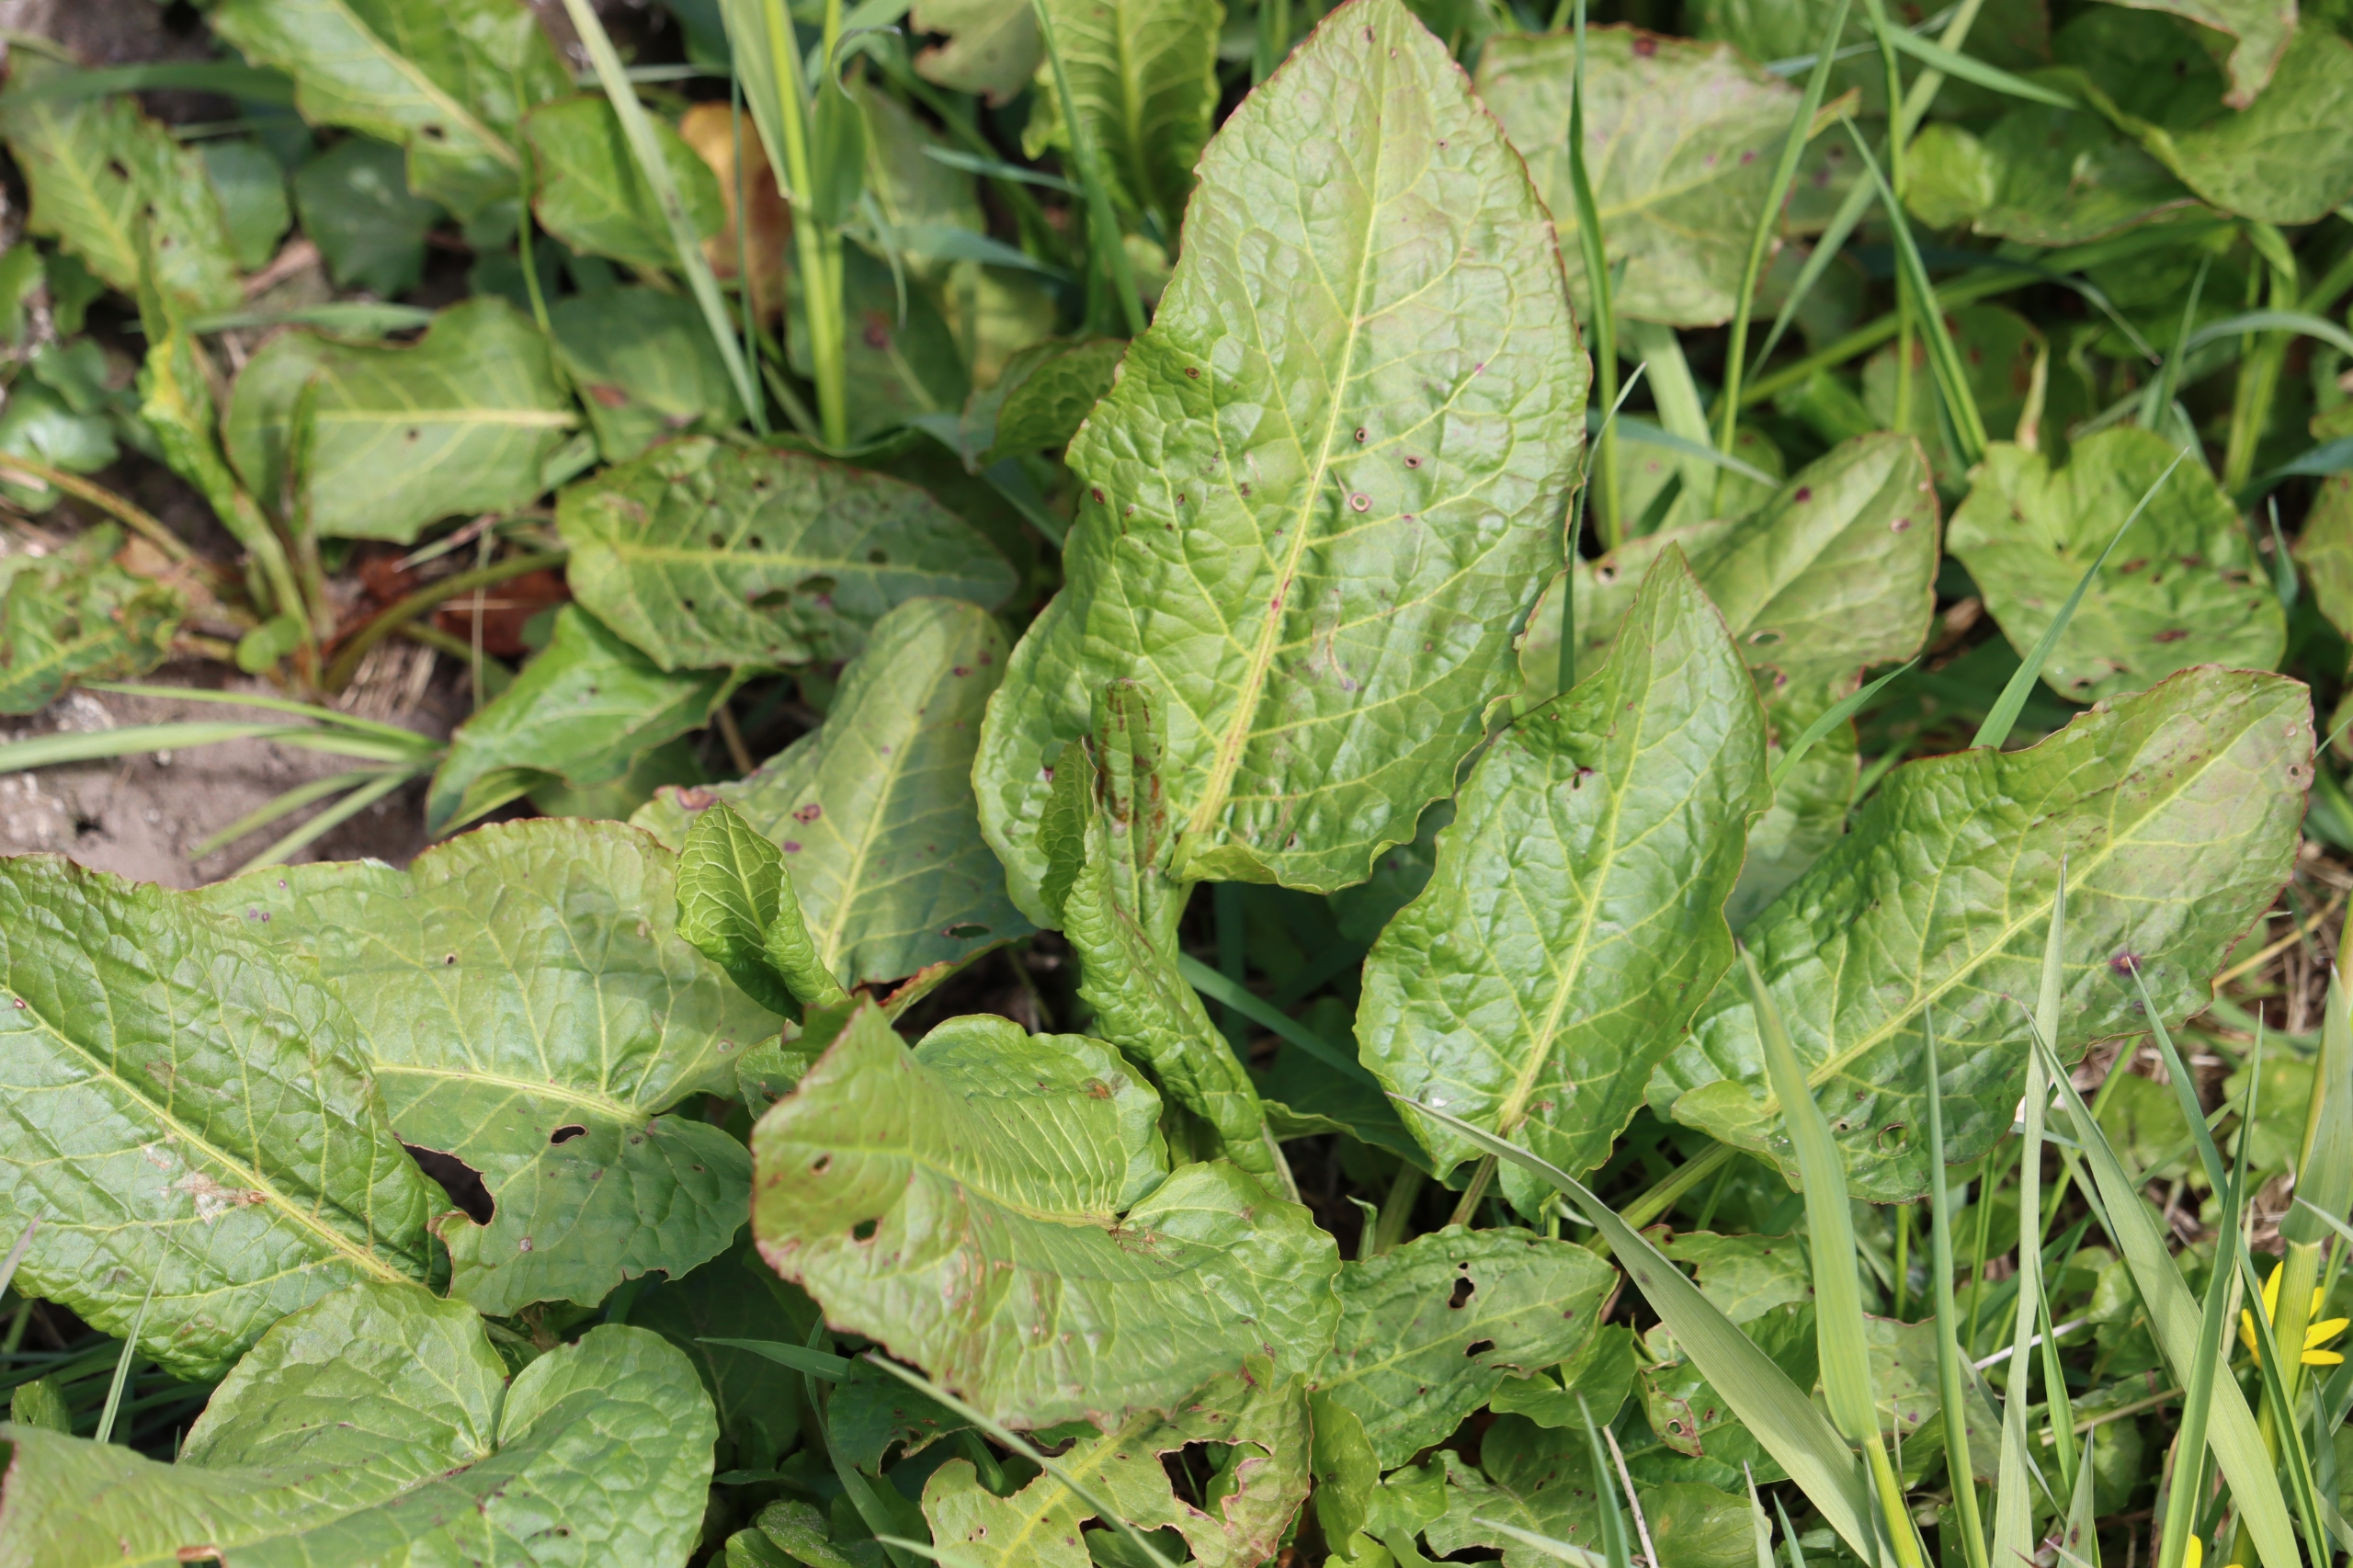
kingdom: Plantae
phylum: Tracheophyta
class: Magnoliopsida
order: Caryophyllales
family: Polygonaceae
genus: Rumex
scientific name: Rumex obtusifolius
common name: Butbladet skræppe
